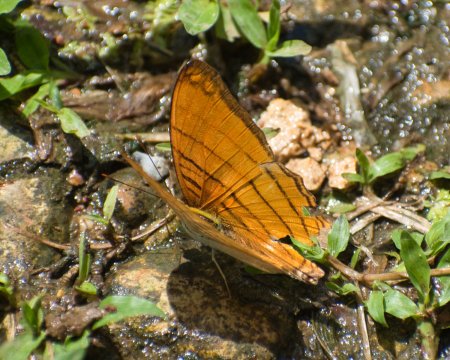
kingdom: Animalia
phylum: Arthropoda
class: Insecta
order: Lepidoptera
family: Nymphalidae
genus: Marpesia
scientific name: Marpesia berania
